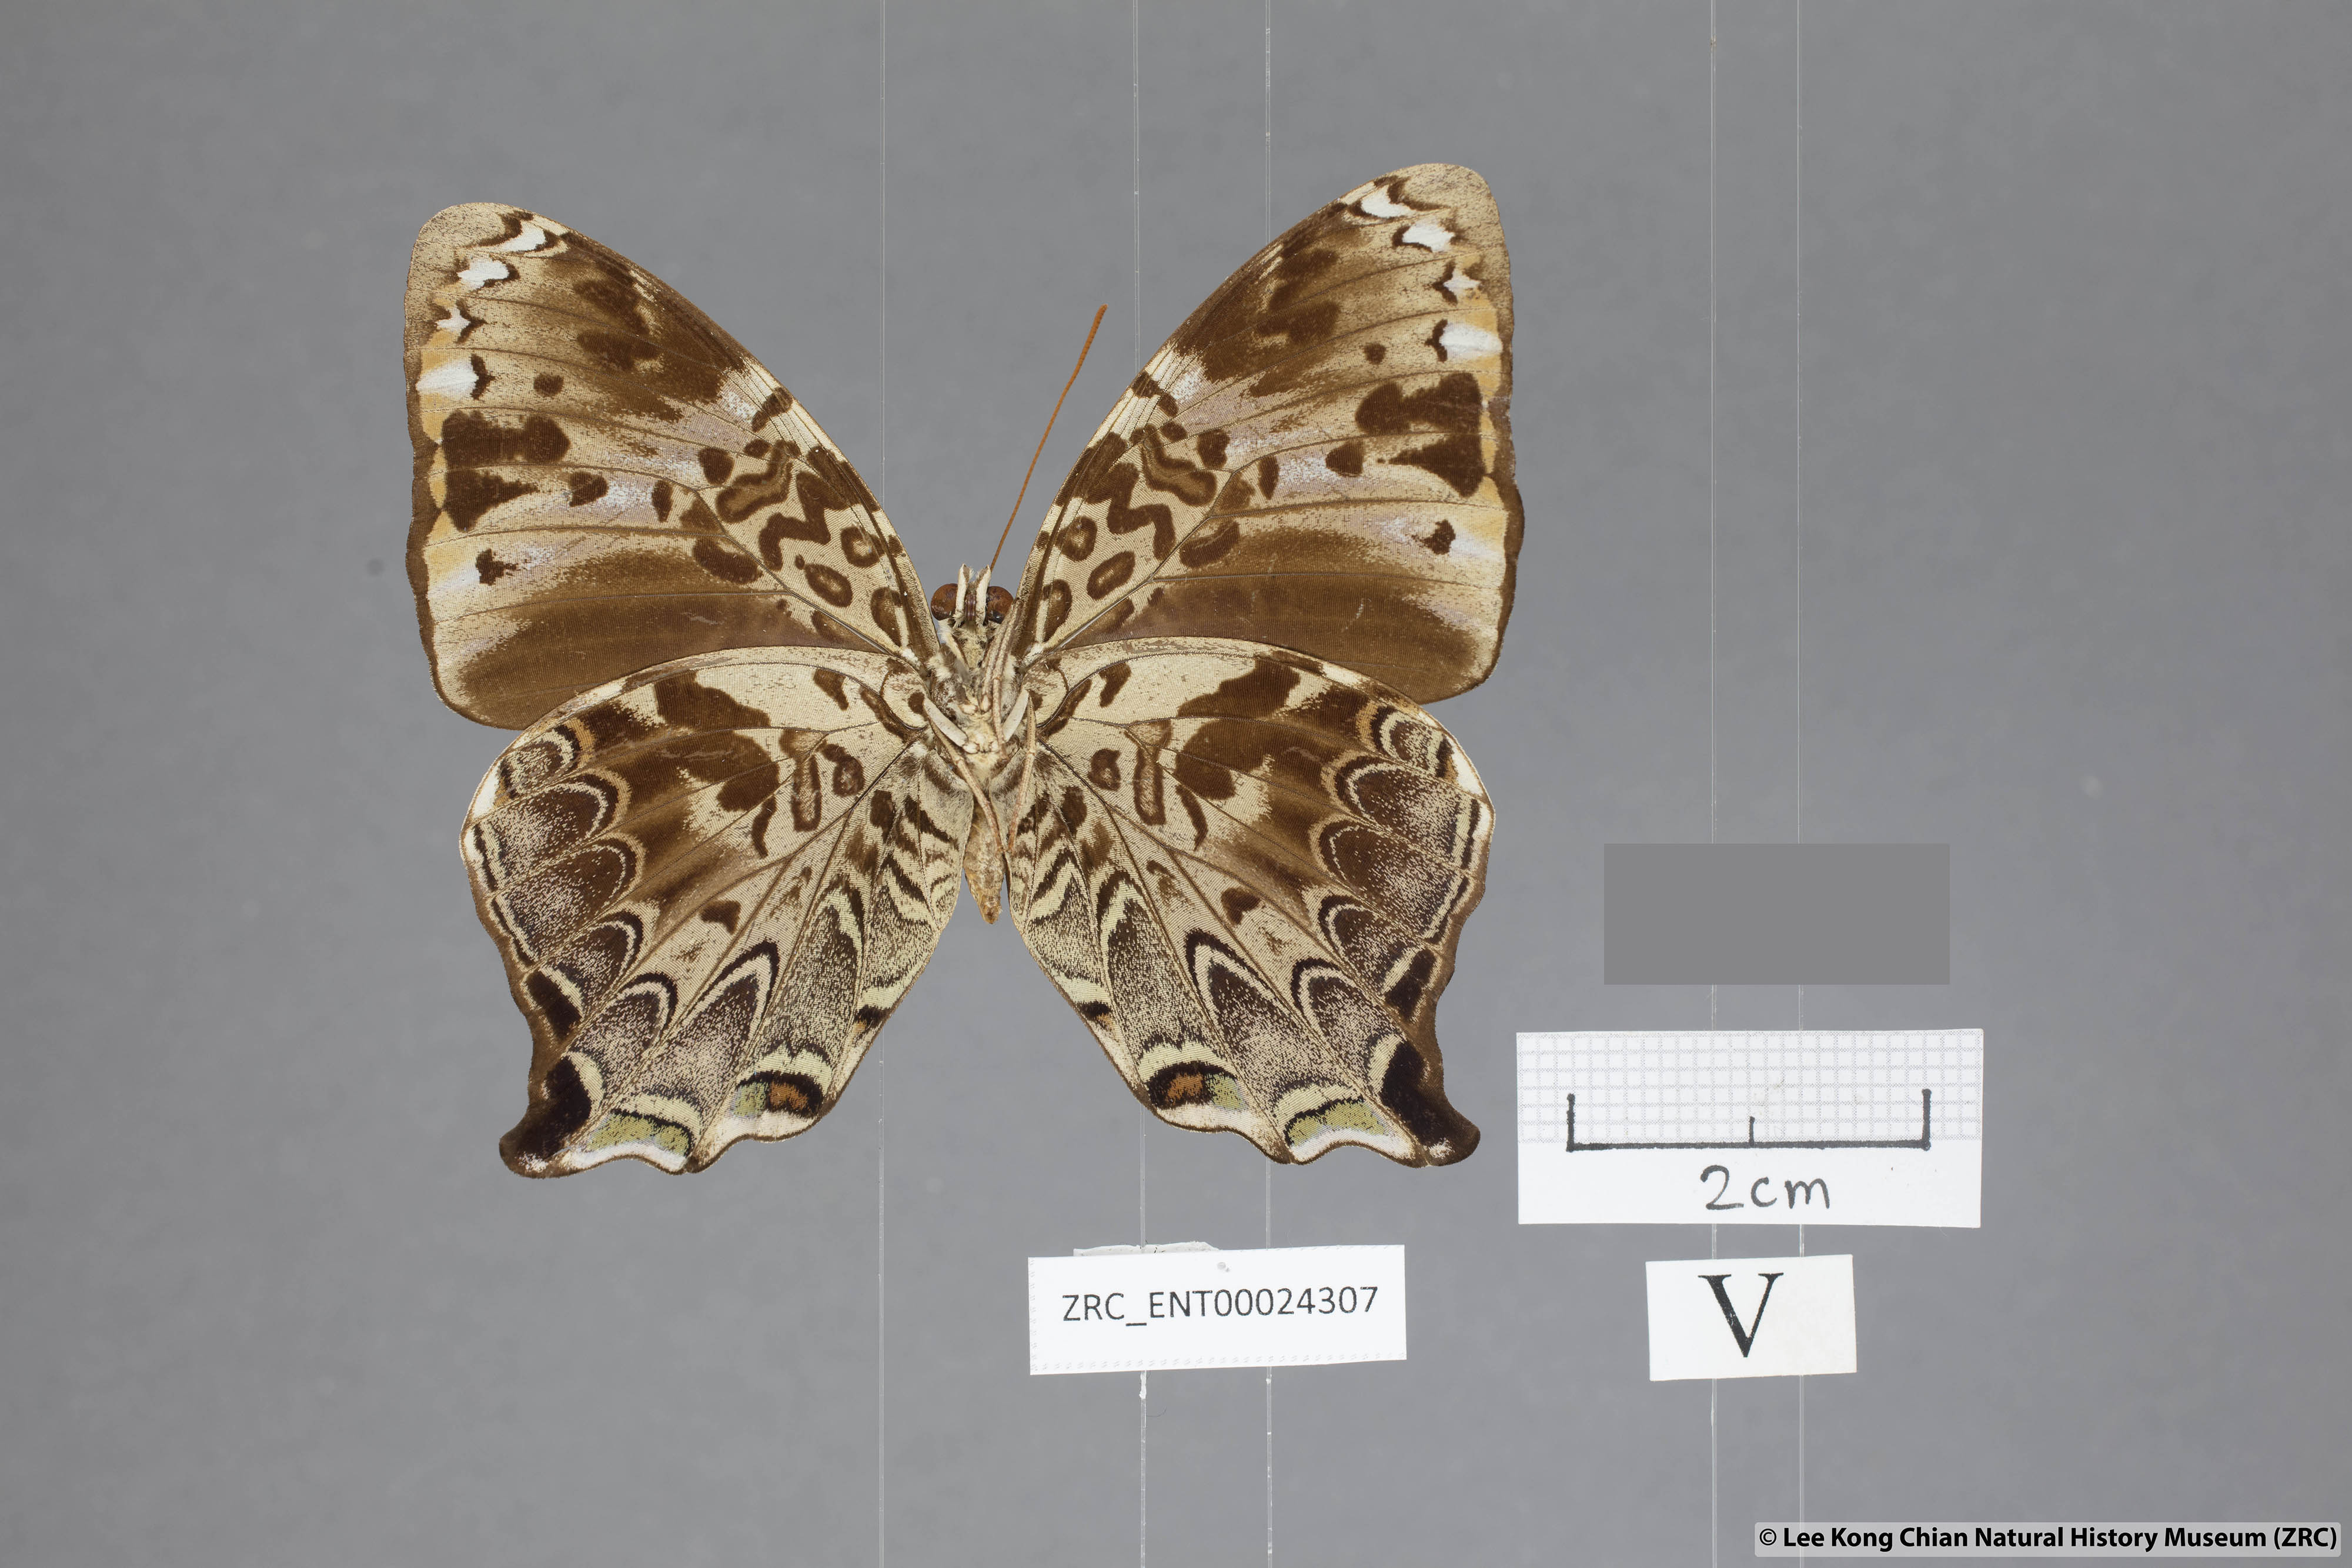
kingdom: Animalia
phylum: Arthropoda
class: Insecta
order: Lepidoptera
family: Nymphalidae
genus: Prothoe
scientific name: Prothoe
